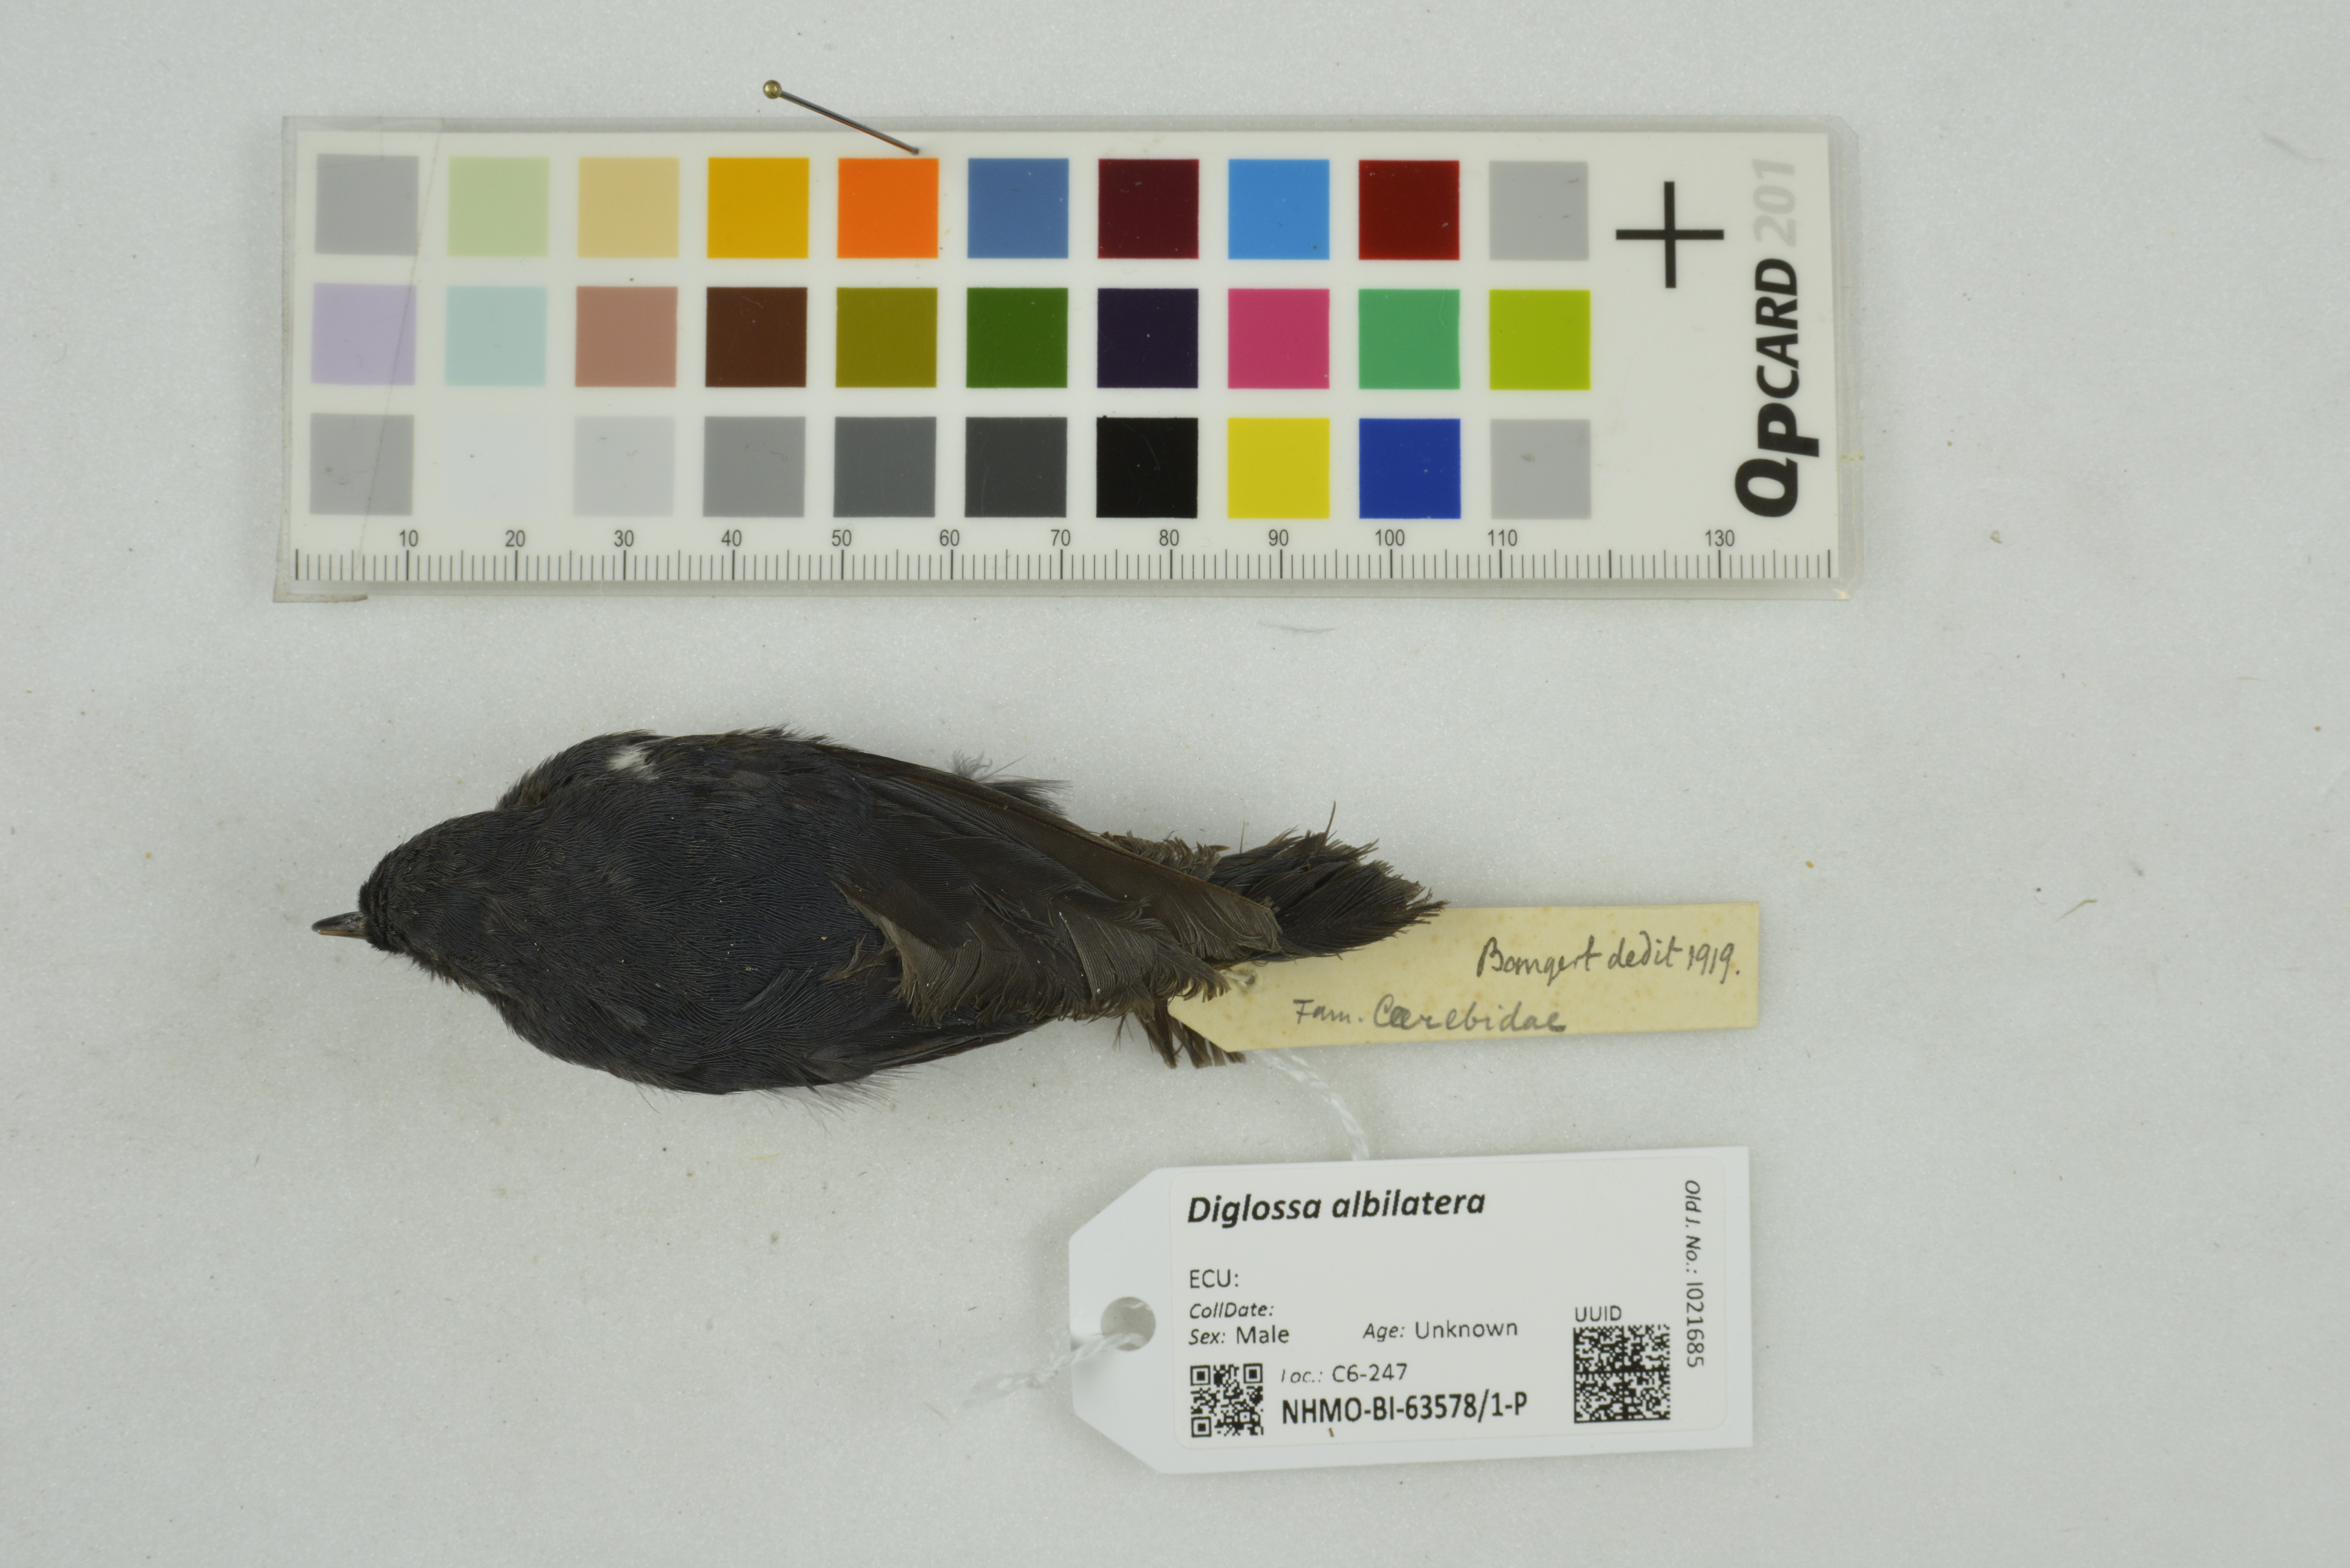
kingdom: Animalia
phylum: Chordata
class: Aves
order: Passeriformes
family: Thraupidae
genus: Diglossa
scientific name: Diglossa albilatera
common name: White-sided flowerpiercer
